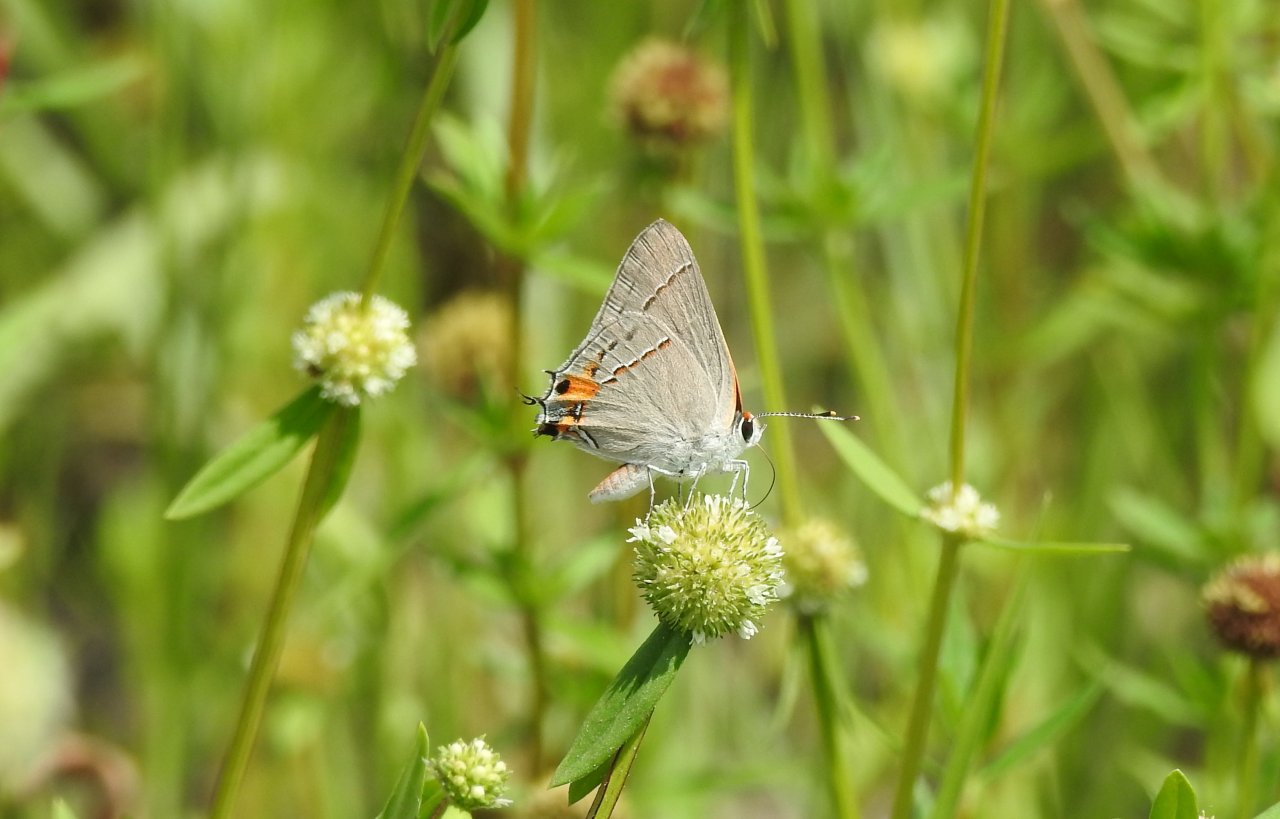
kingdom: Animalia
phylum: Arthropoda
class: Insecta
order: Lepidoptera
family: Lycaenidae
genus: Strymon
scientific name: Strymon melinus
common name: Gray Hairstreak
